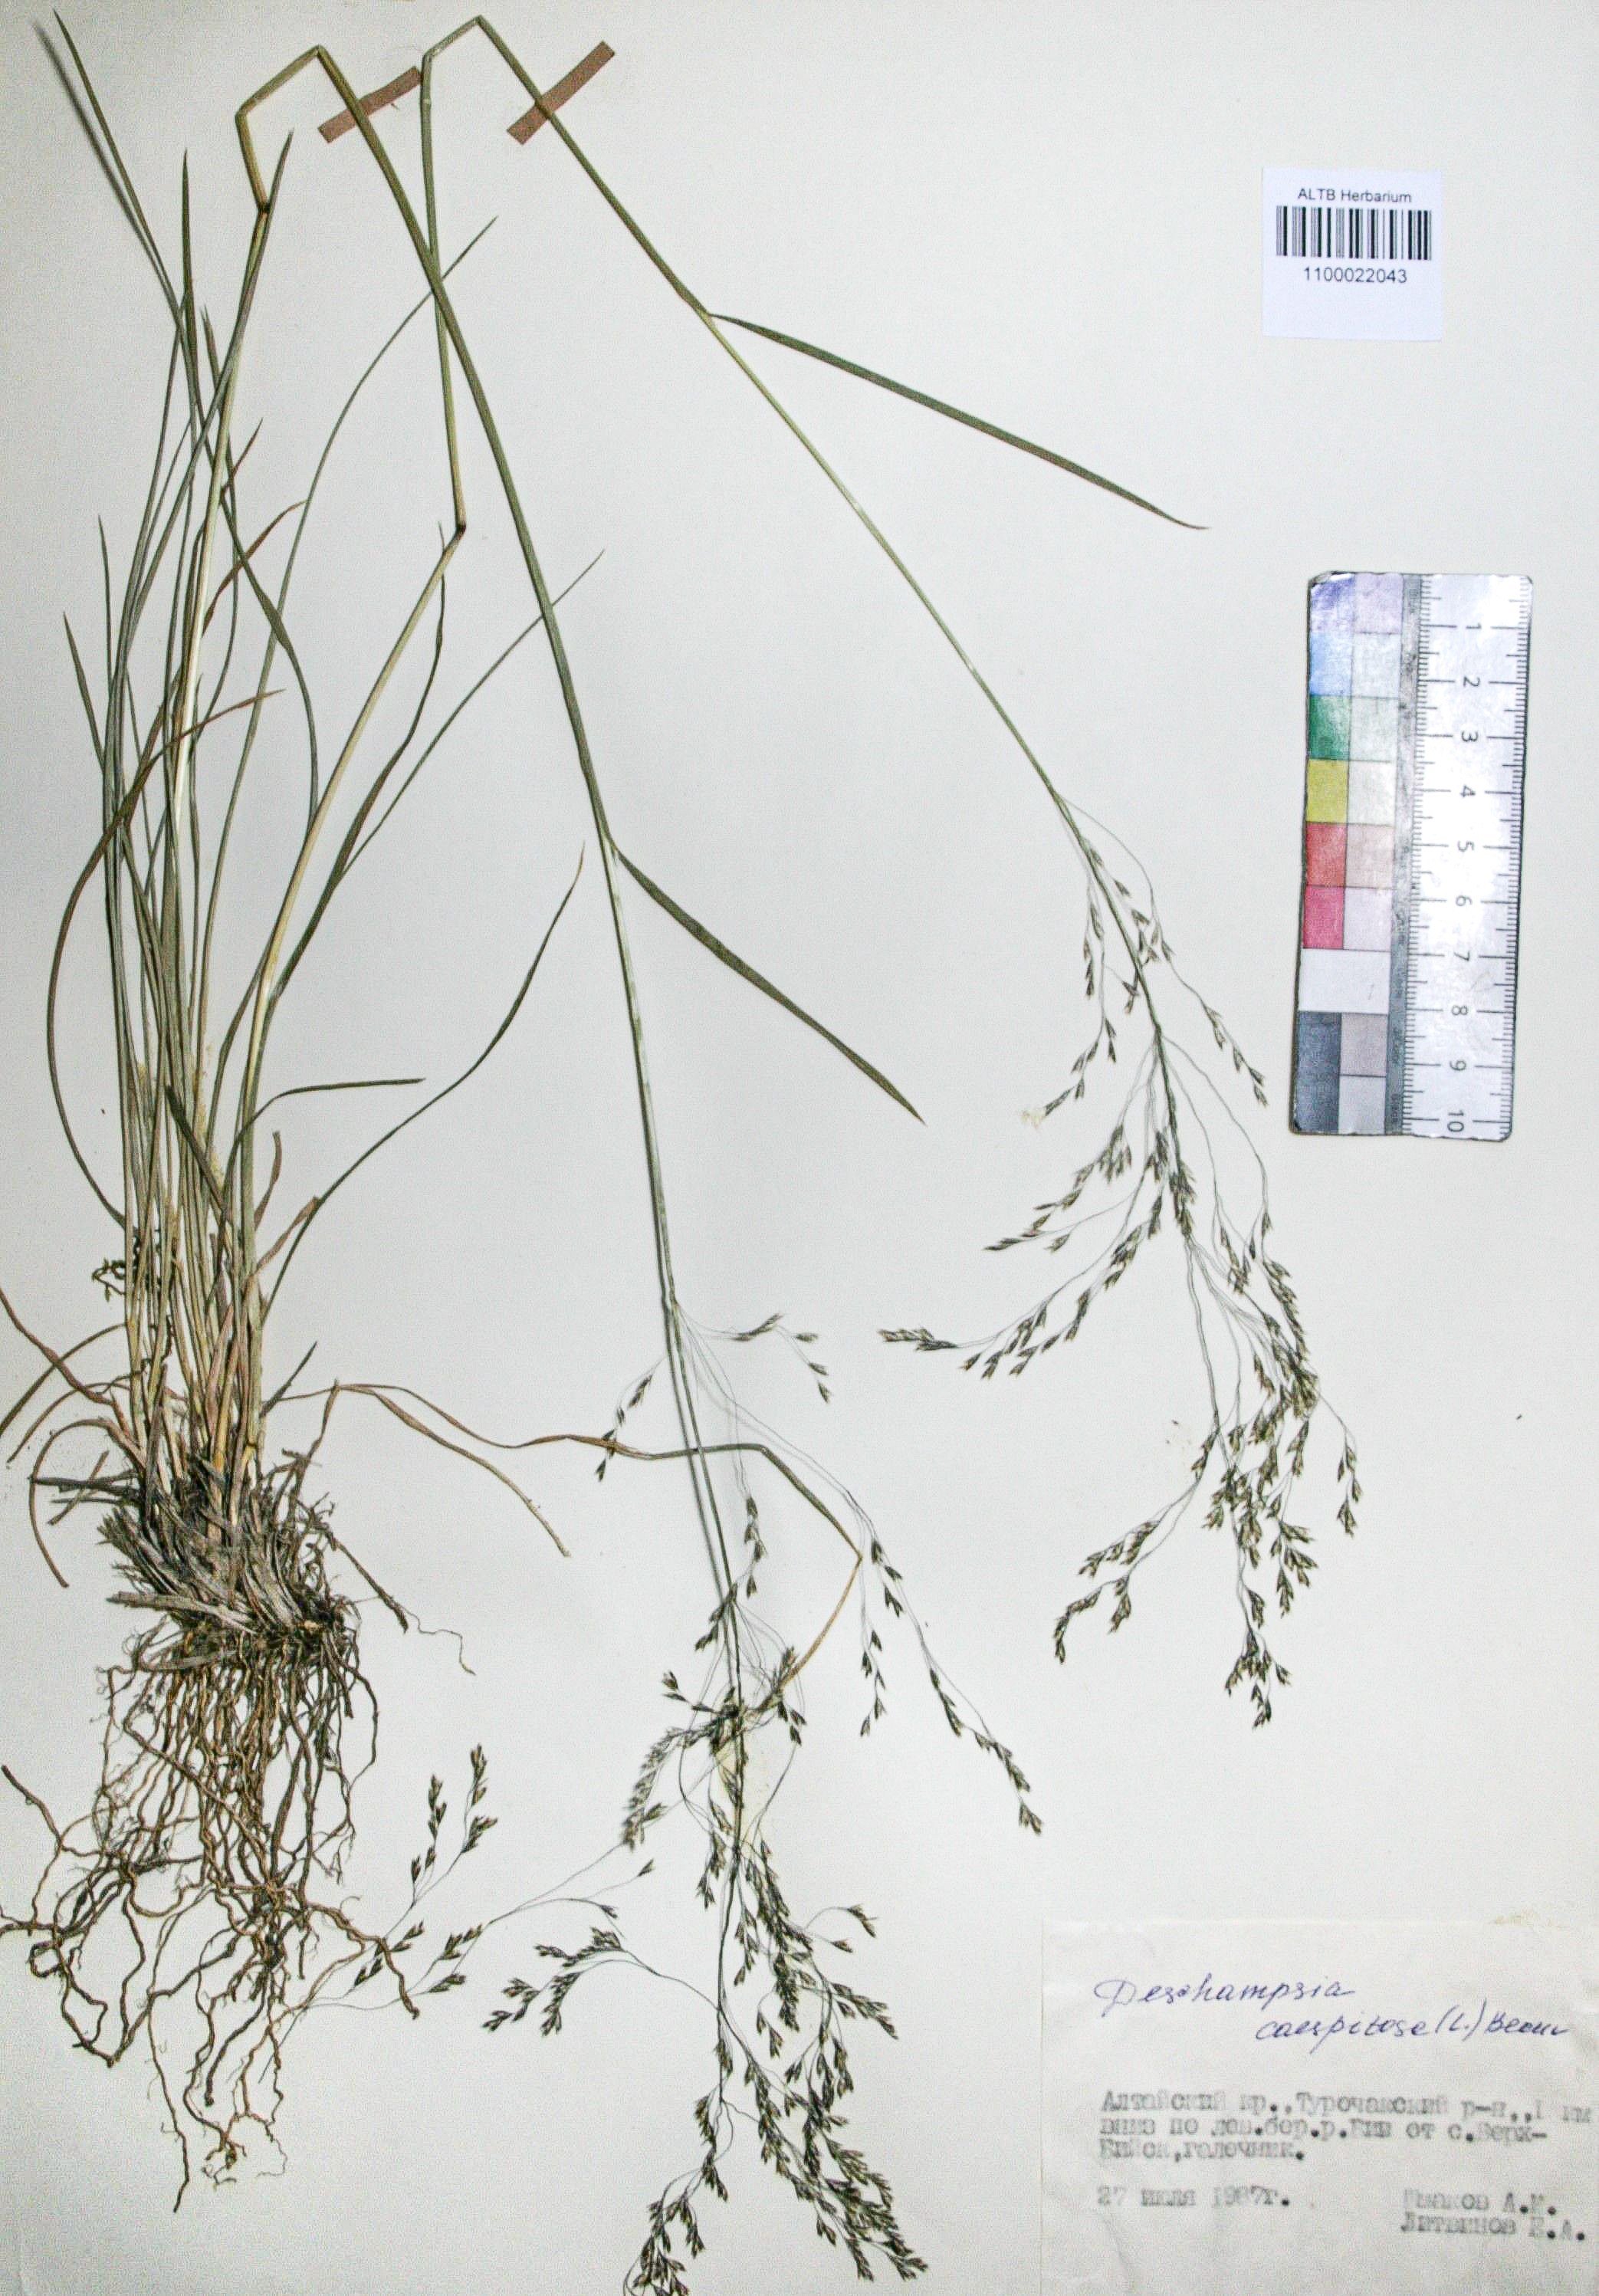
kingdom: Plantae
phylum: Tracheophyta
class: Liliopsida
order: Poales
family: Poaceae
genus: Deschampsia
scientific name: Deschampsia cespitosa
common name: Tufted hair-grass
